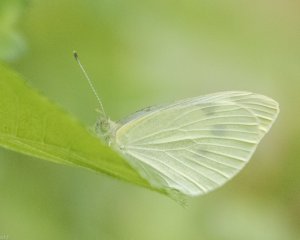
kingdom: Animalia
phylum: Arthropoda
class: Insecta
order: Lepidoptera
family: Pieridae
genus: Pieris
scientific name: Pieris rapae
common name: Cabbage White
